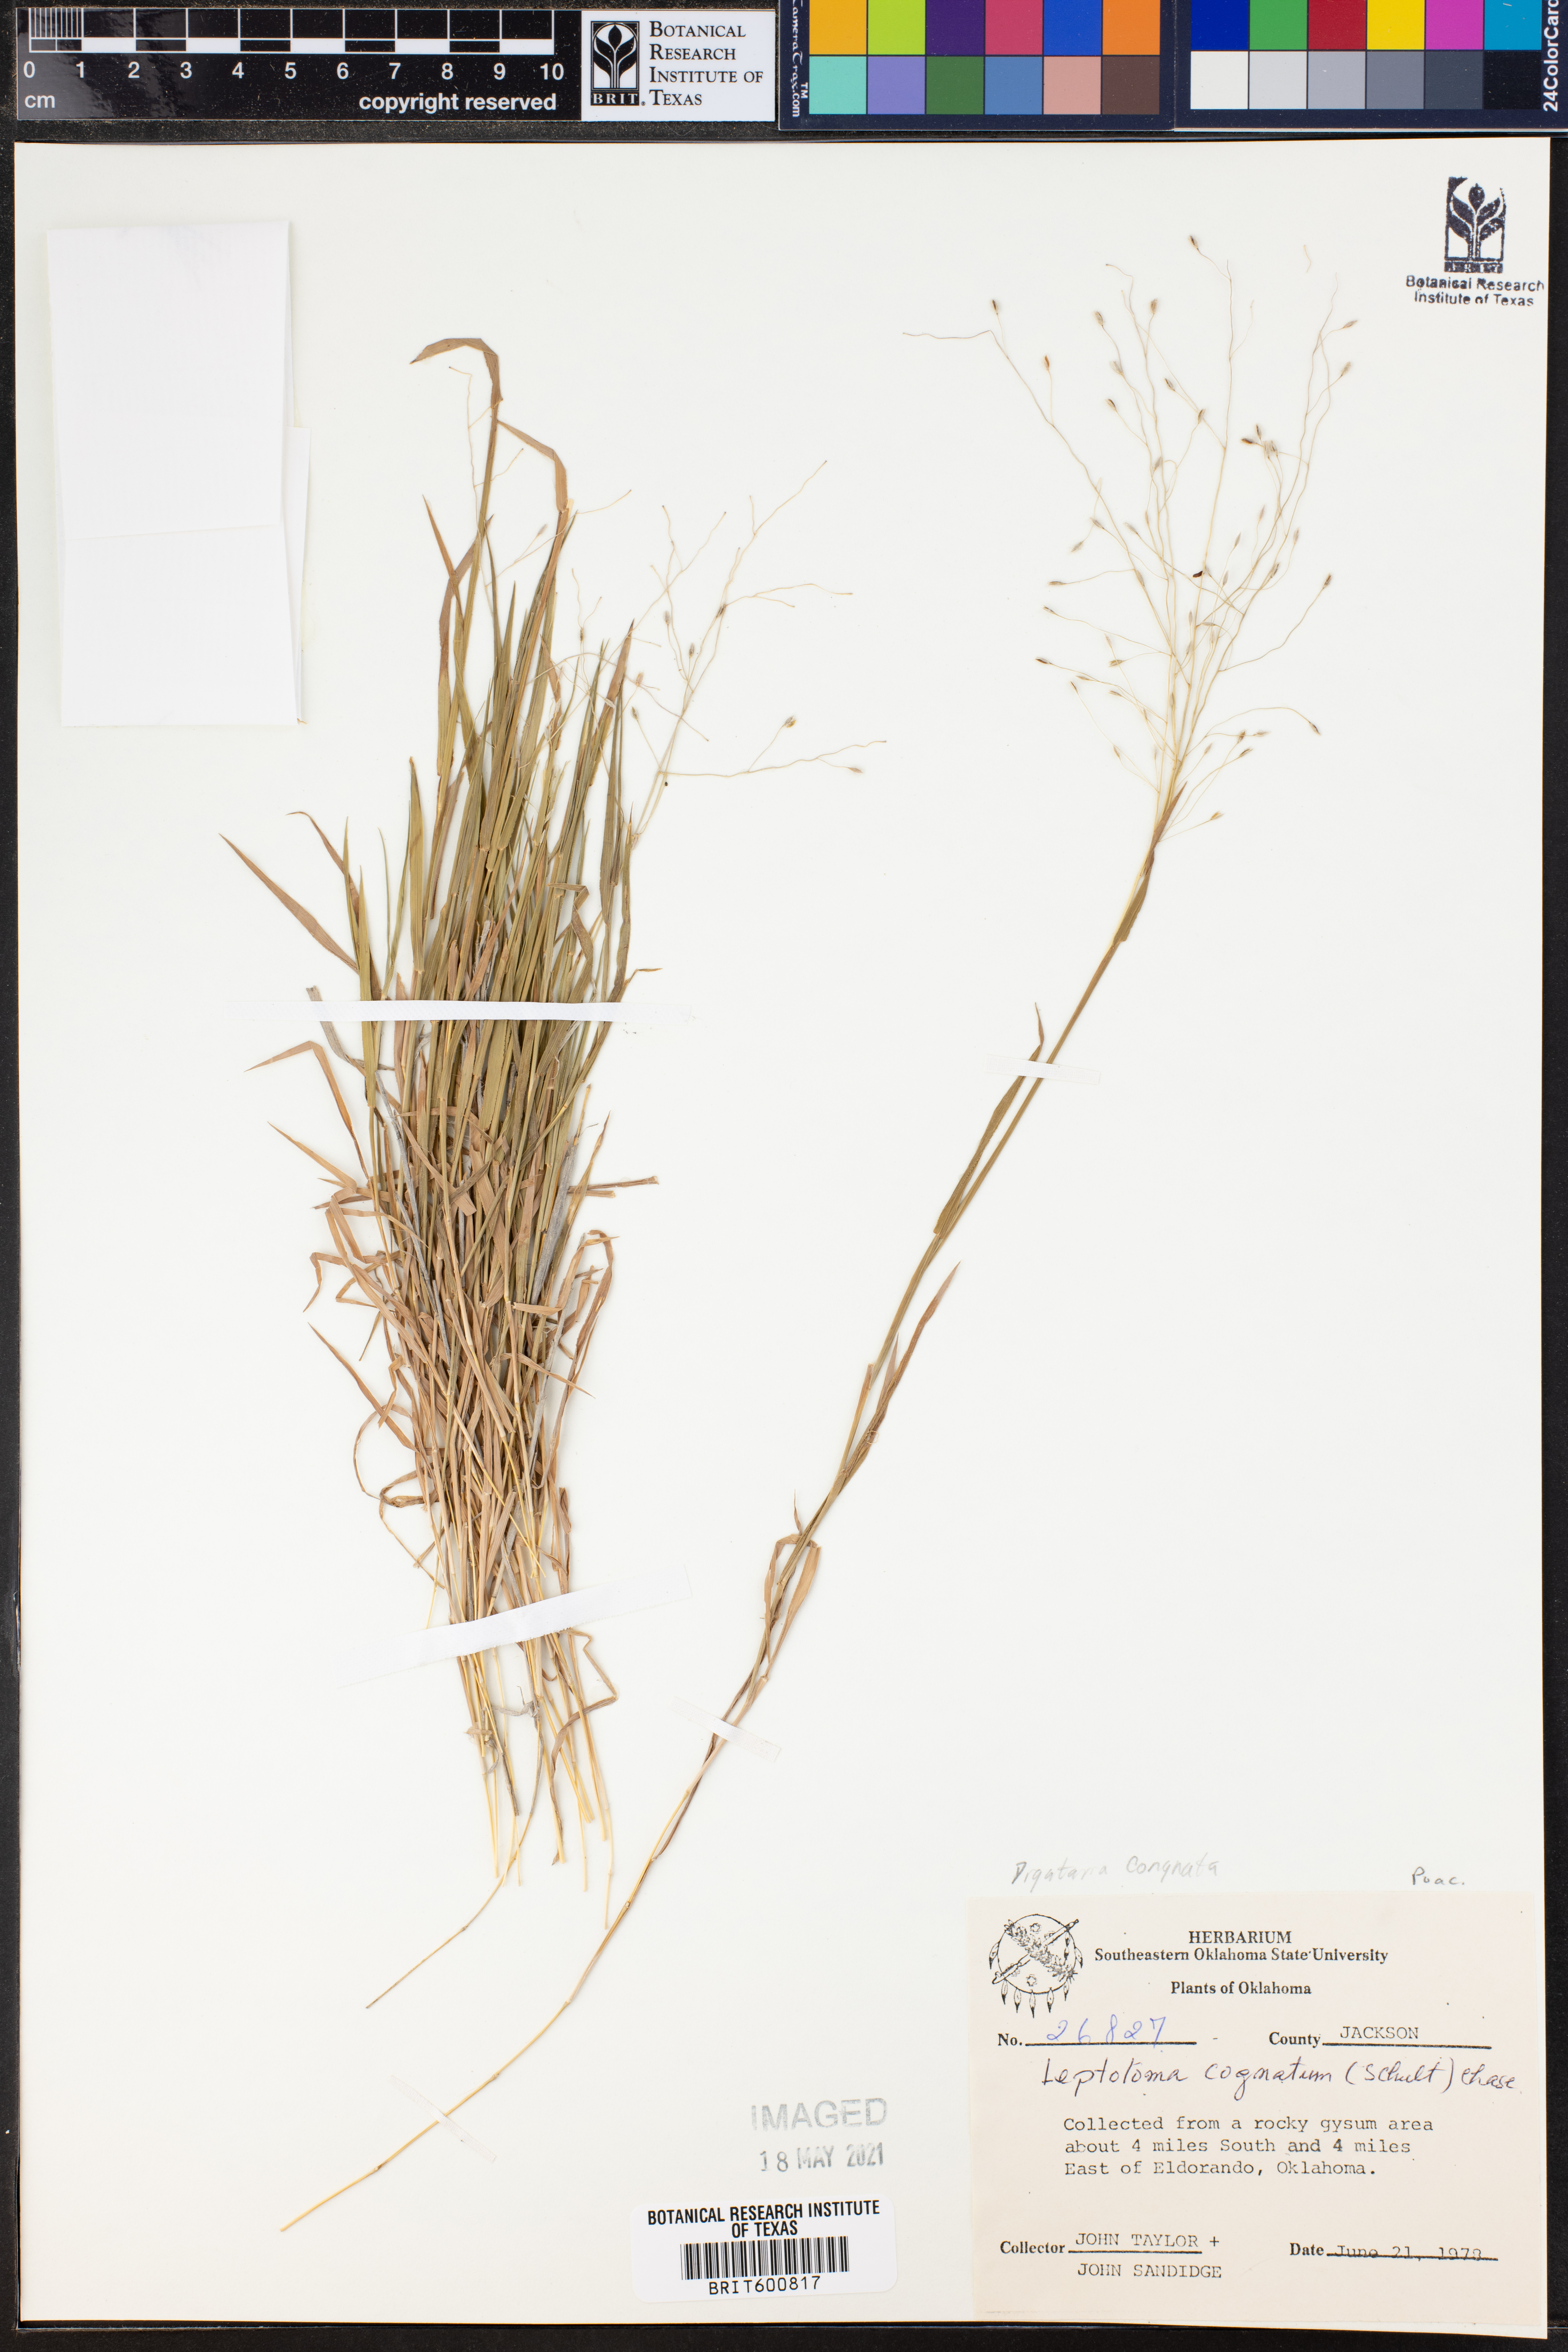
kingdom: Plantae
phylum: Tracheophyta
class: Liliopsida
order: Poales
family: Poaceae
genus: Digitaria
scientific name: Digitaria cognata
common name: Fall witchgrass
